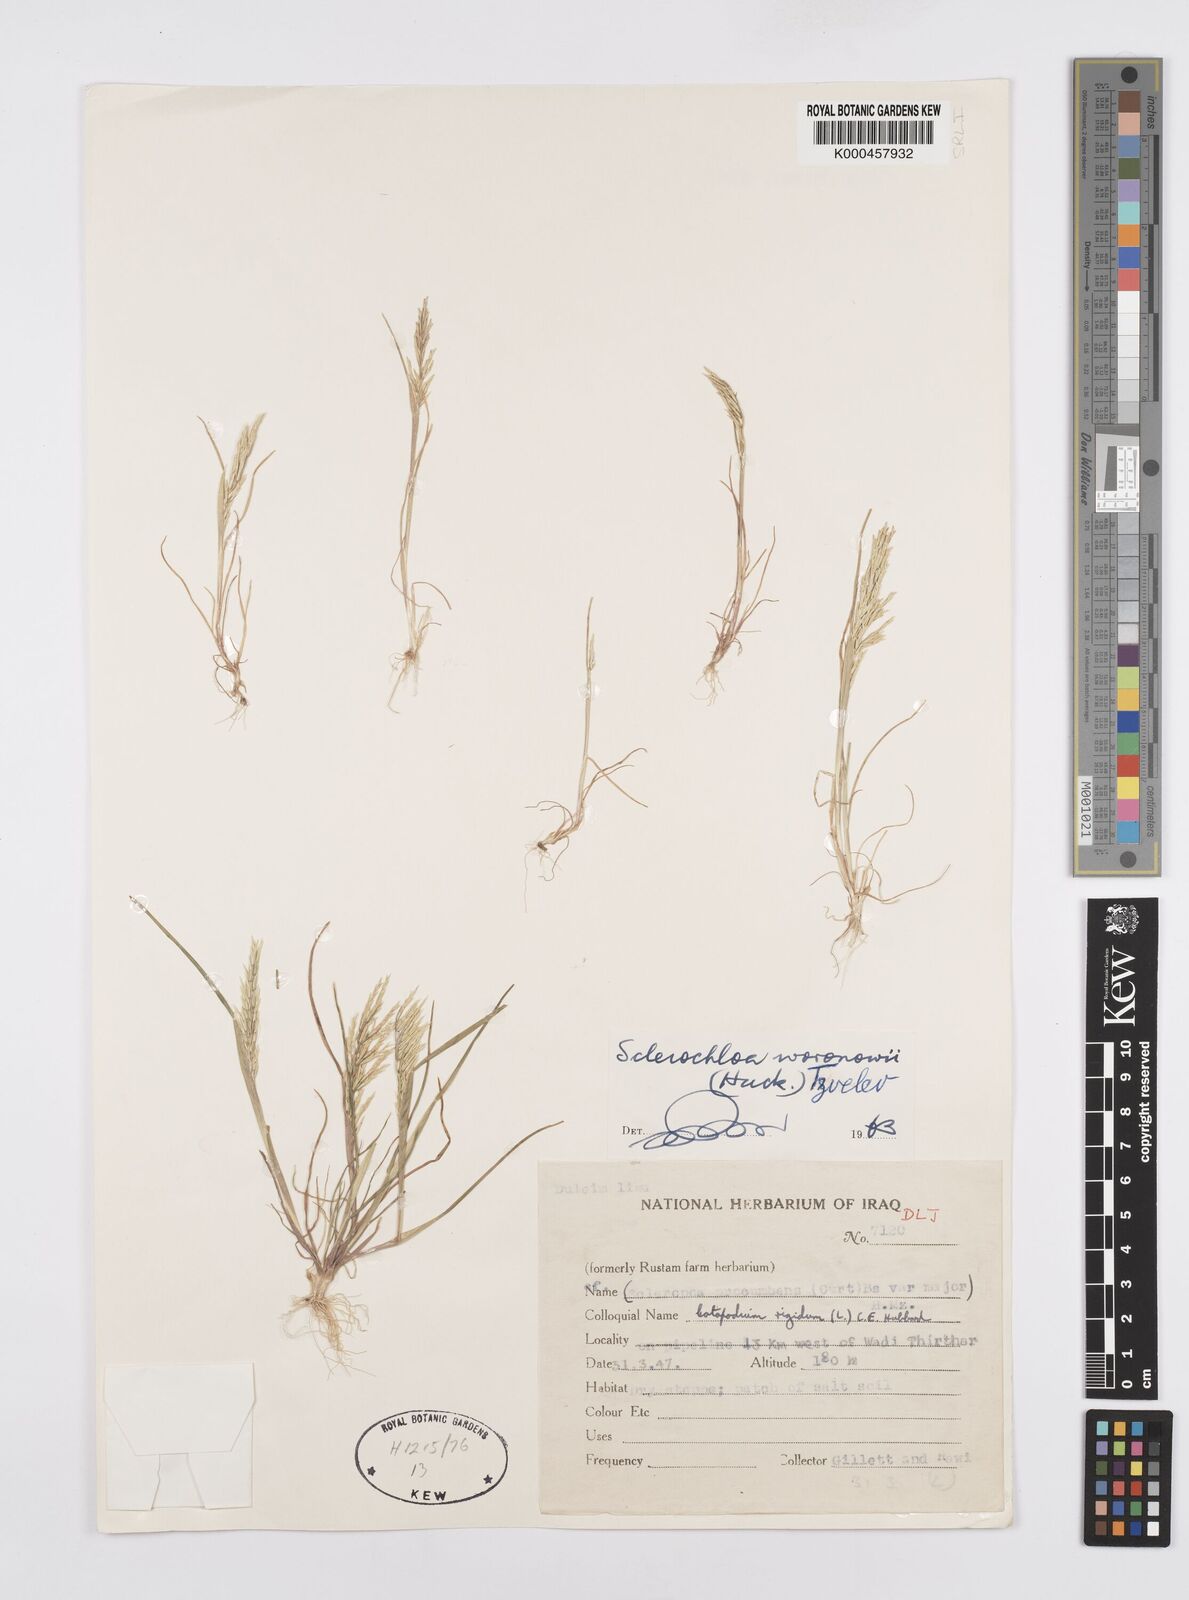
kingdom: Plantae
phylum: Tracheophyta
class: Liliopsida
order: Poales
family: Poaceae
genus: Sclerochloa
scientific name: Sclerochloa woronowii
